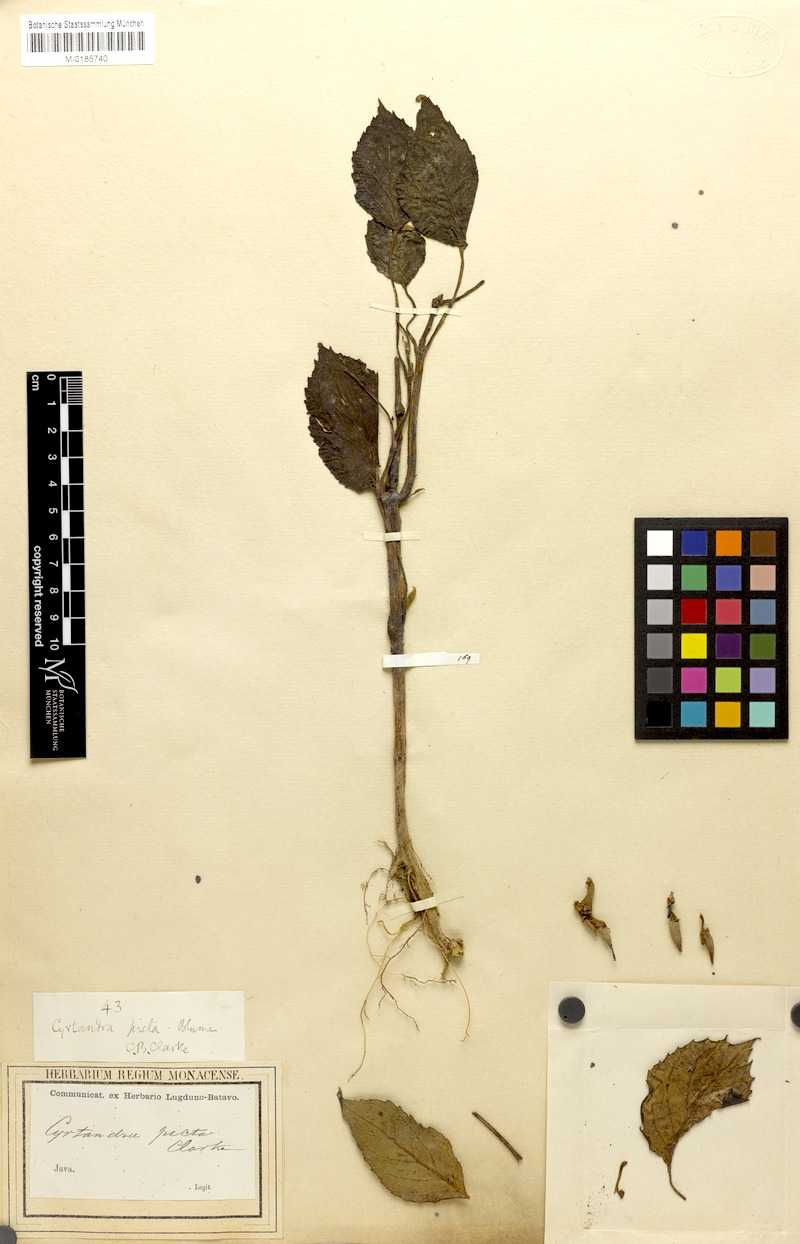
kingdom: Plantae
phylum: Tracheophyta
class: Magnoliopsida
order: Lamiales
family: Gesneriaceae
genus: Cyrtandra
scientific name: Cyrtandra picta
